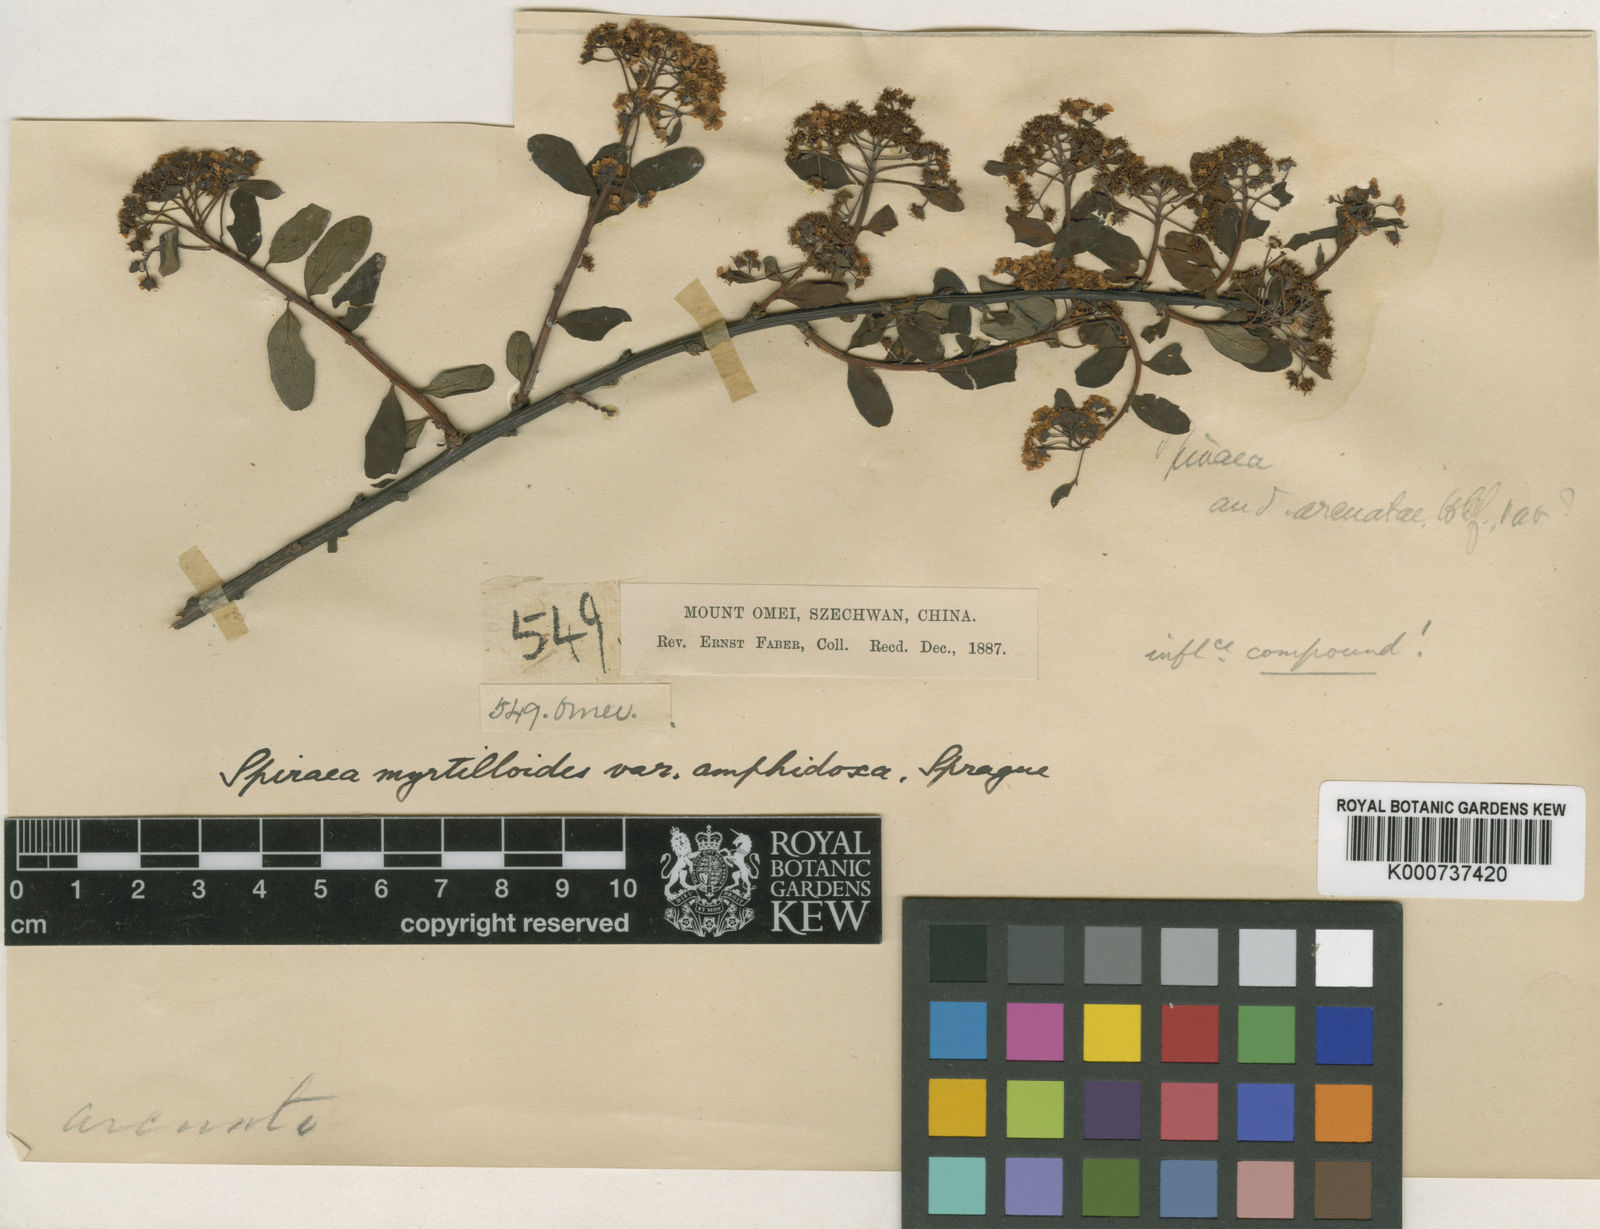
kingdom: Plantae
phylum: Tracheophyta
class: Magnoliopsida
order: Rosales
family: Rosaceae
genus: Spiraea
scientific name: Spiraea myrtilloides
